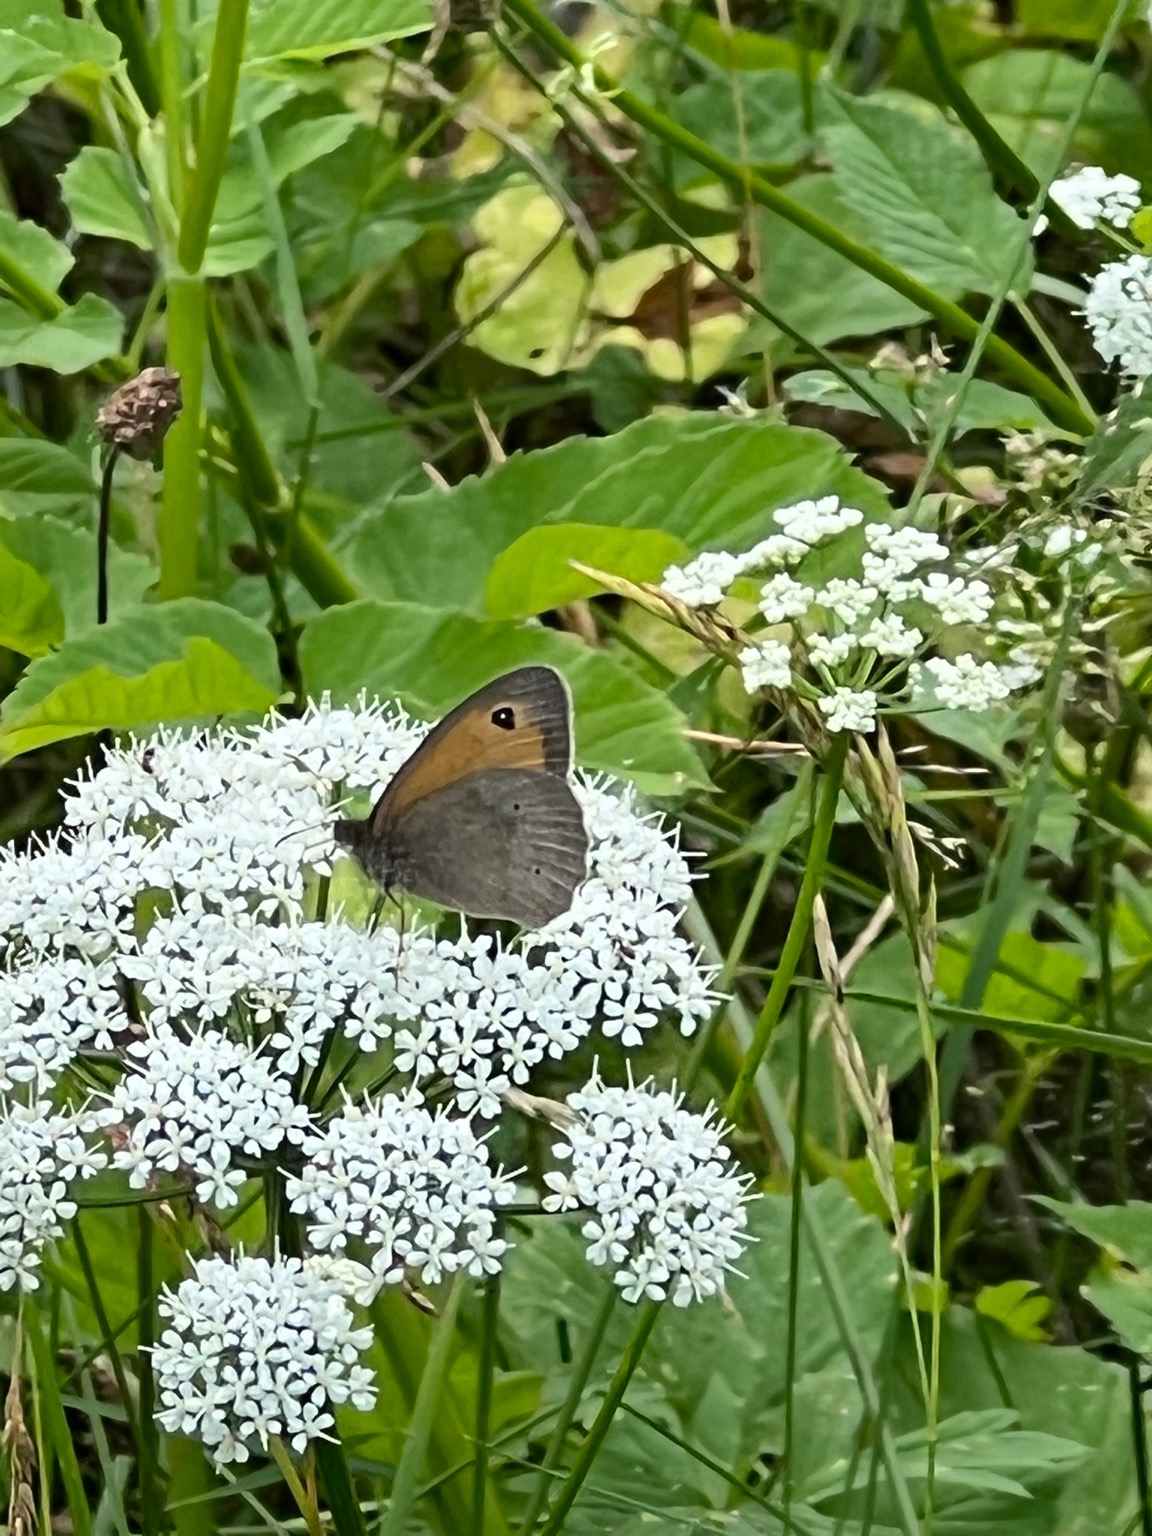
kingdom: Animalia
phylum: Arthropoda
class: Insecta
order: Lepidoptera
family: Nymphalidae
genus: Maniola
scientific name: Maniola jurtina
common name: Græsrandøje
